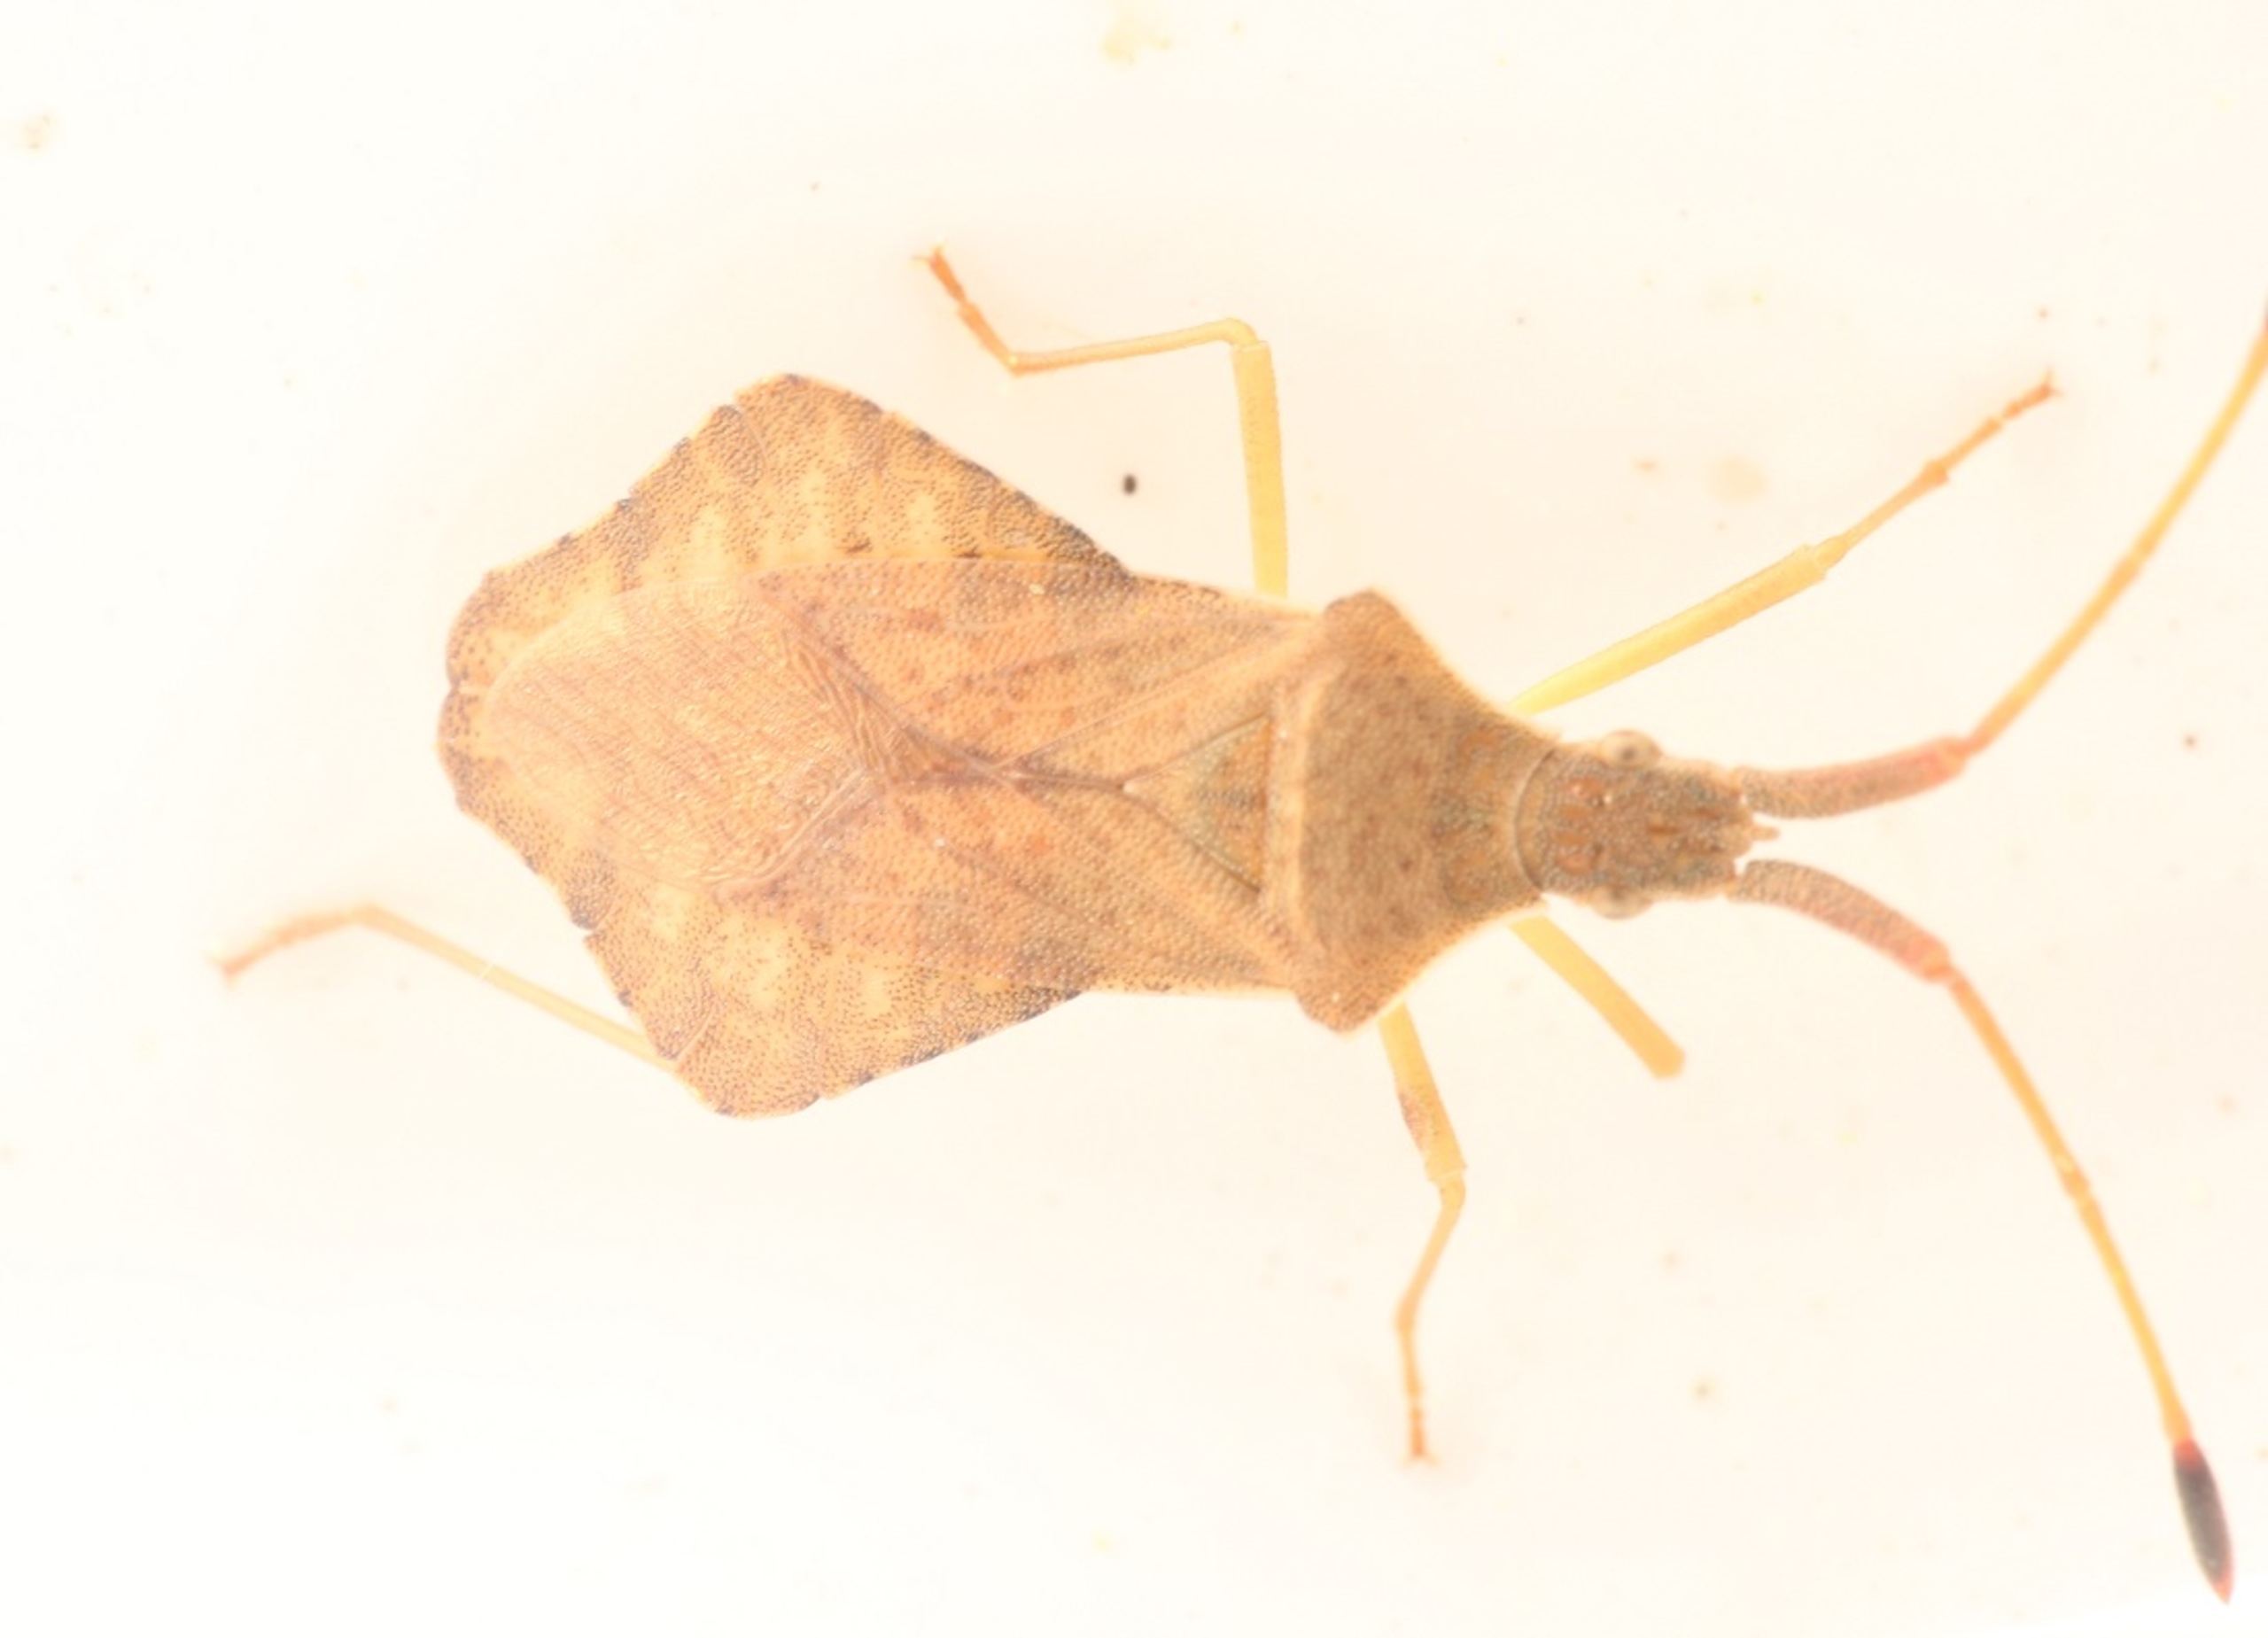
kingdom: Animalia
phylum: Arthropoda
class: Insecta
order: Hemiptera
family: Coreidae
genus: Syromastus
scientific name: Syromastus rhombeus
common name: Rudetæge
